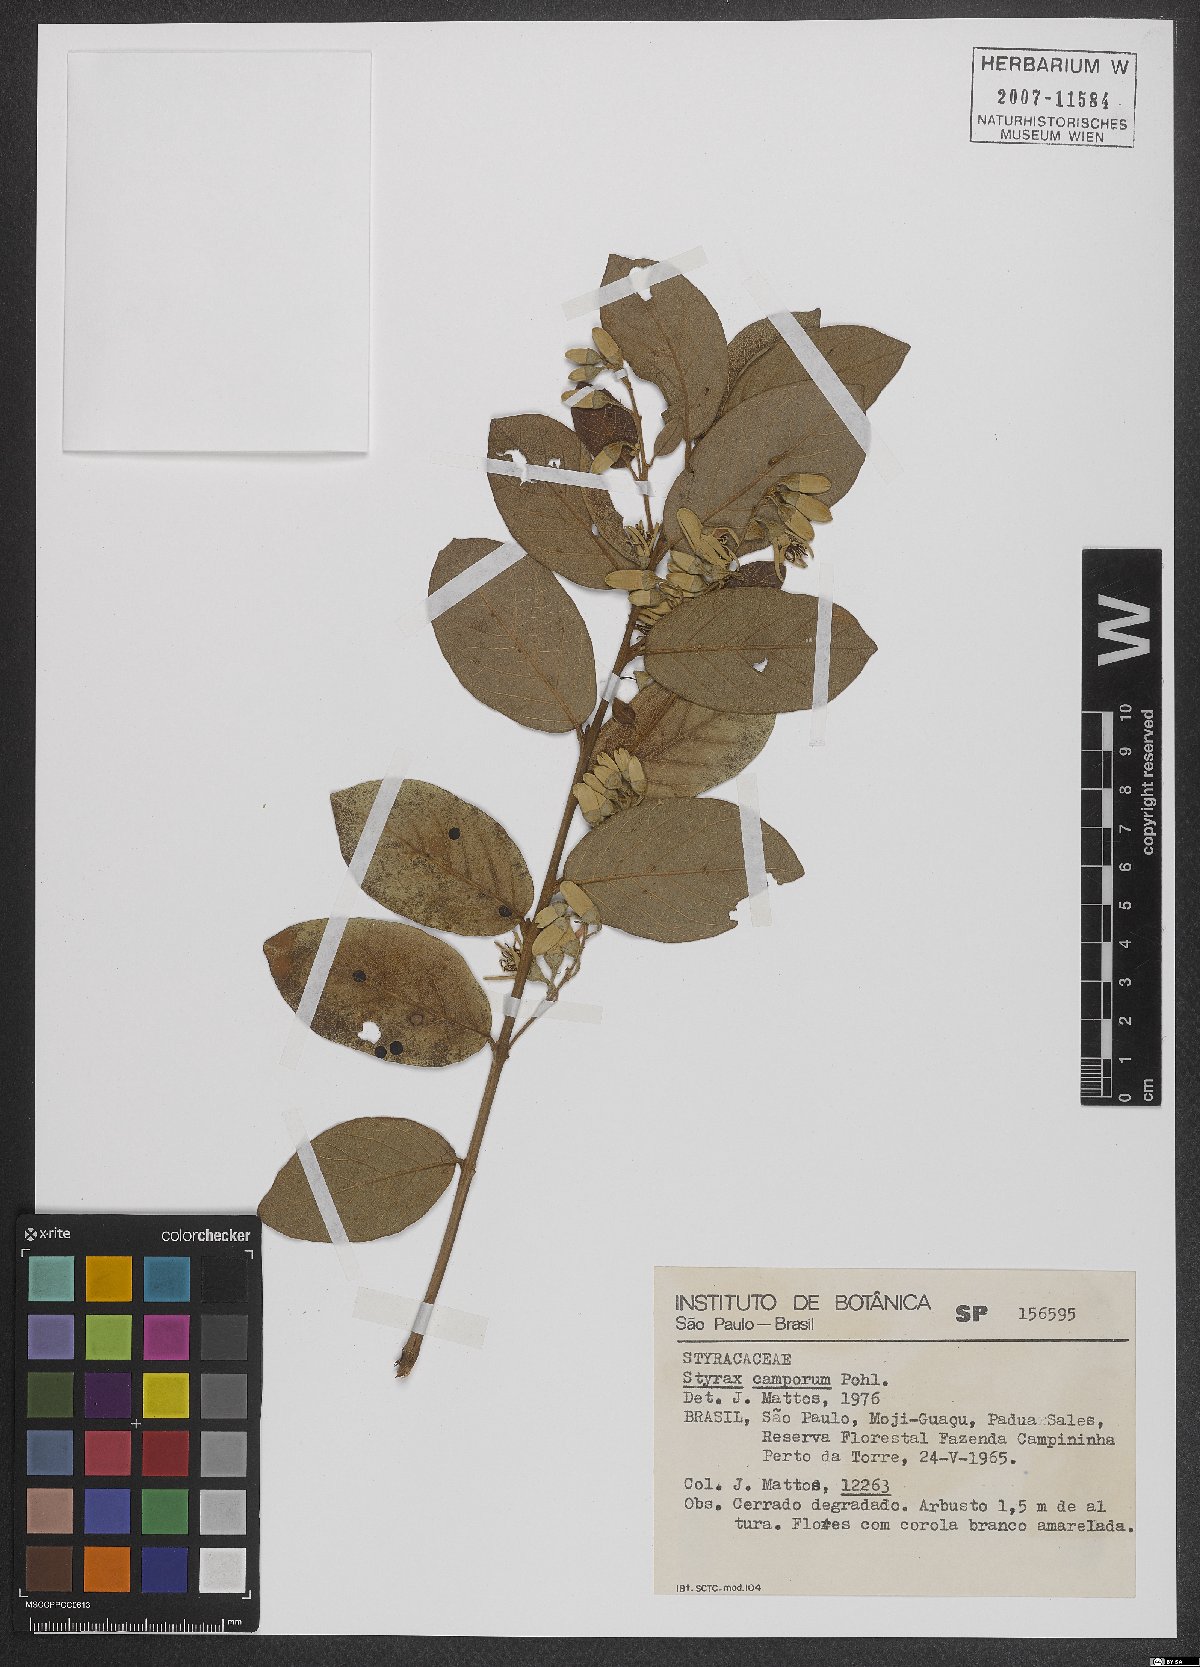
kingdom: Plantae
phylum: Tracheophyta
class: Magnoliopsida
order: Ericales
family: Styracaceae
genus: Styrax
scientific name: Styrax camporum
